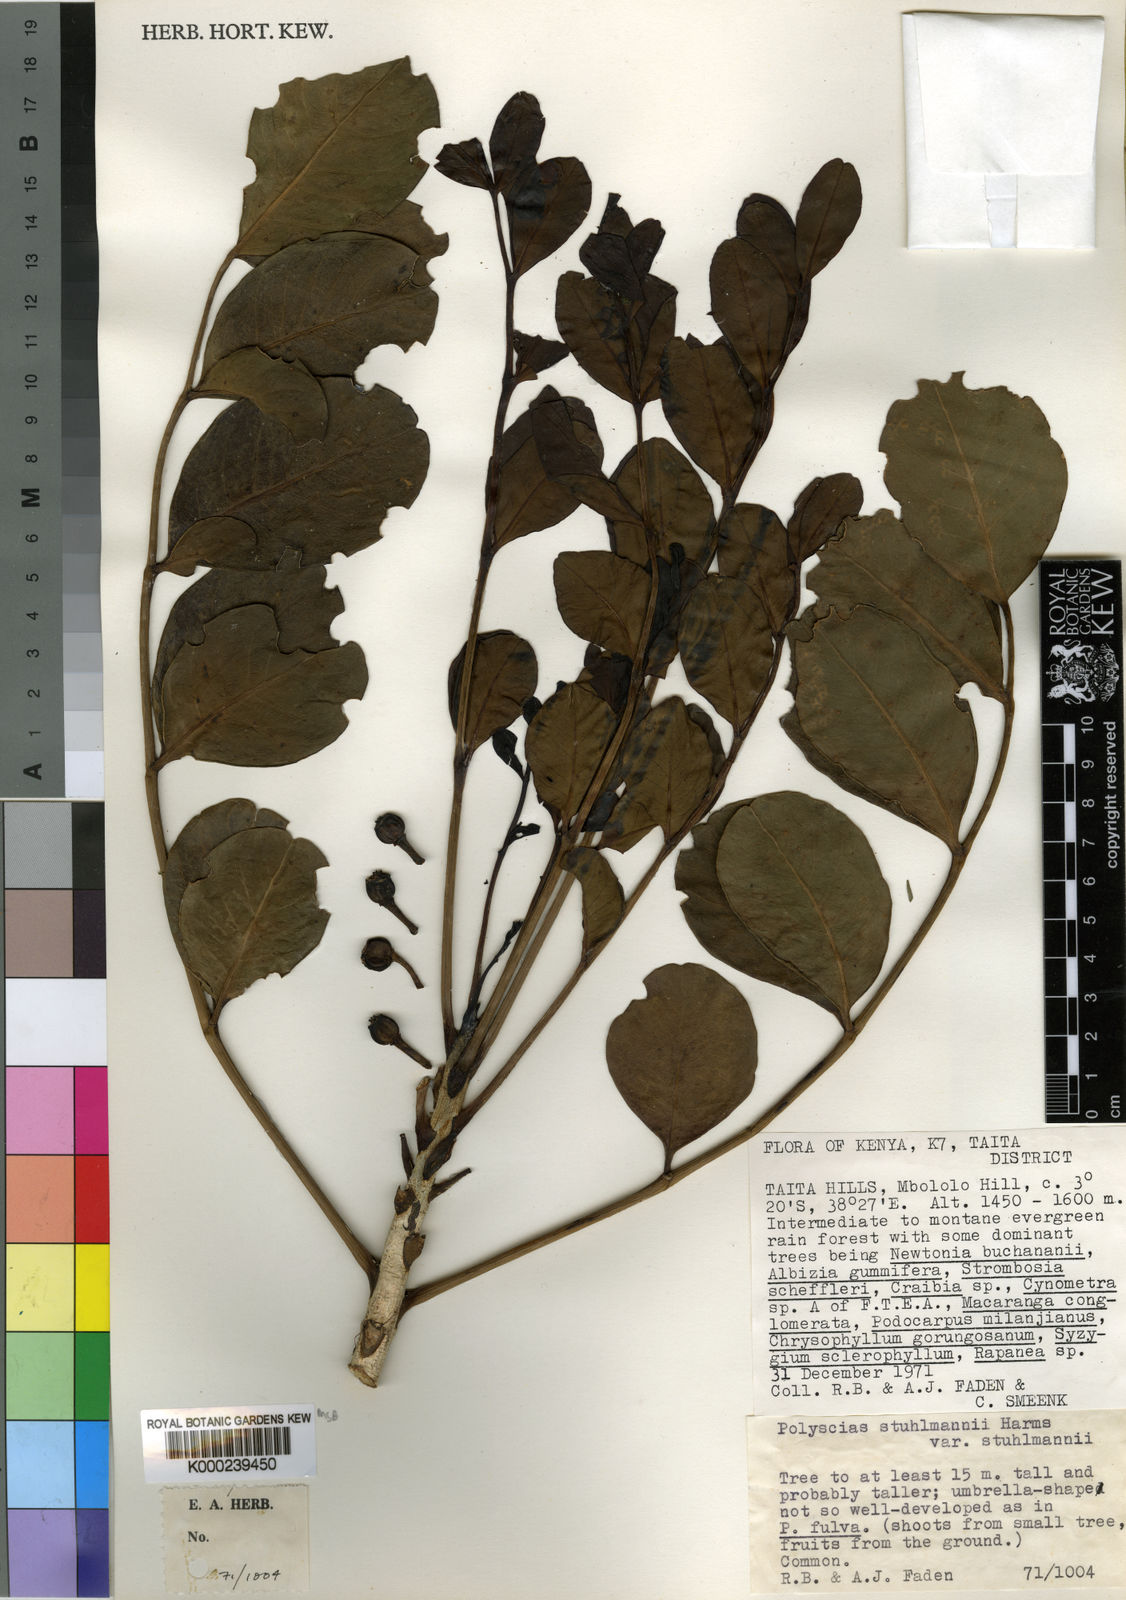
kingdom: Plantae
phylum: Tracheophyta
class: Magnoliopsida
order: Apiales
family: Araliaceae
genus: Polyscias
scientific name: Polyscias stuhlmannii
